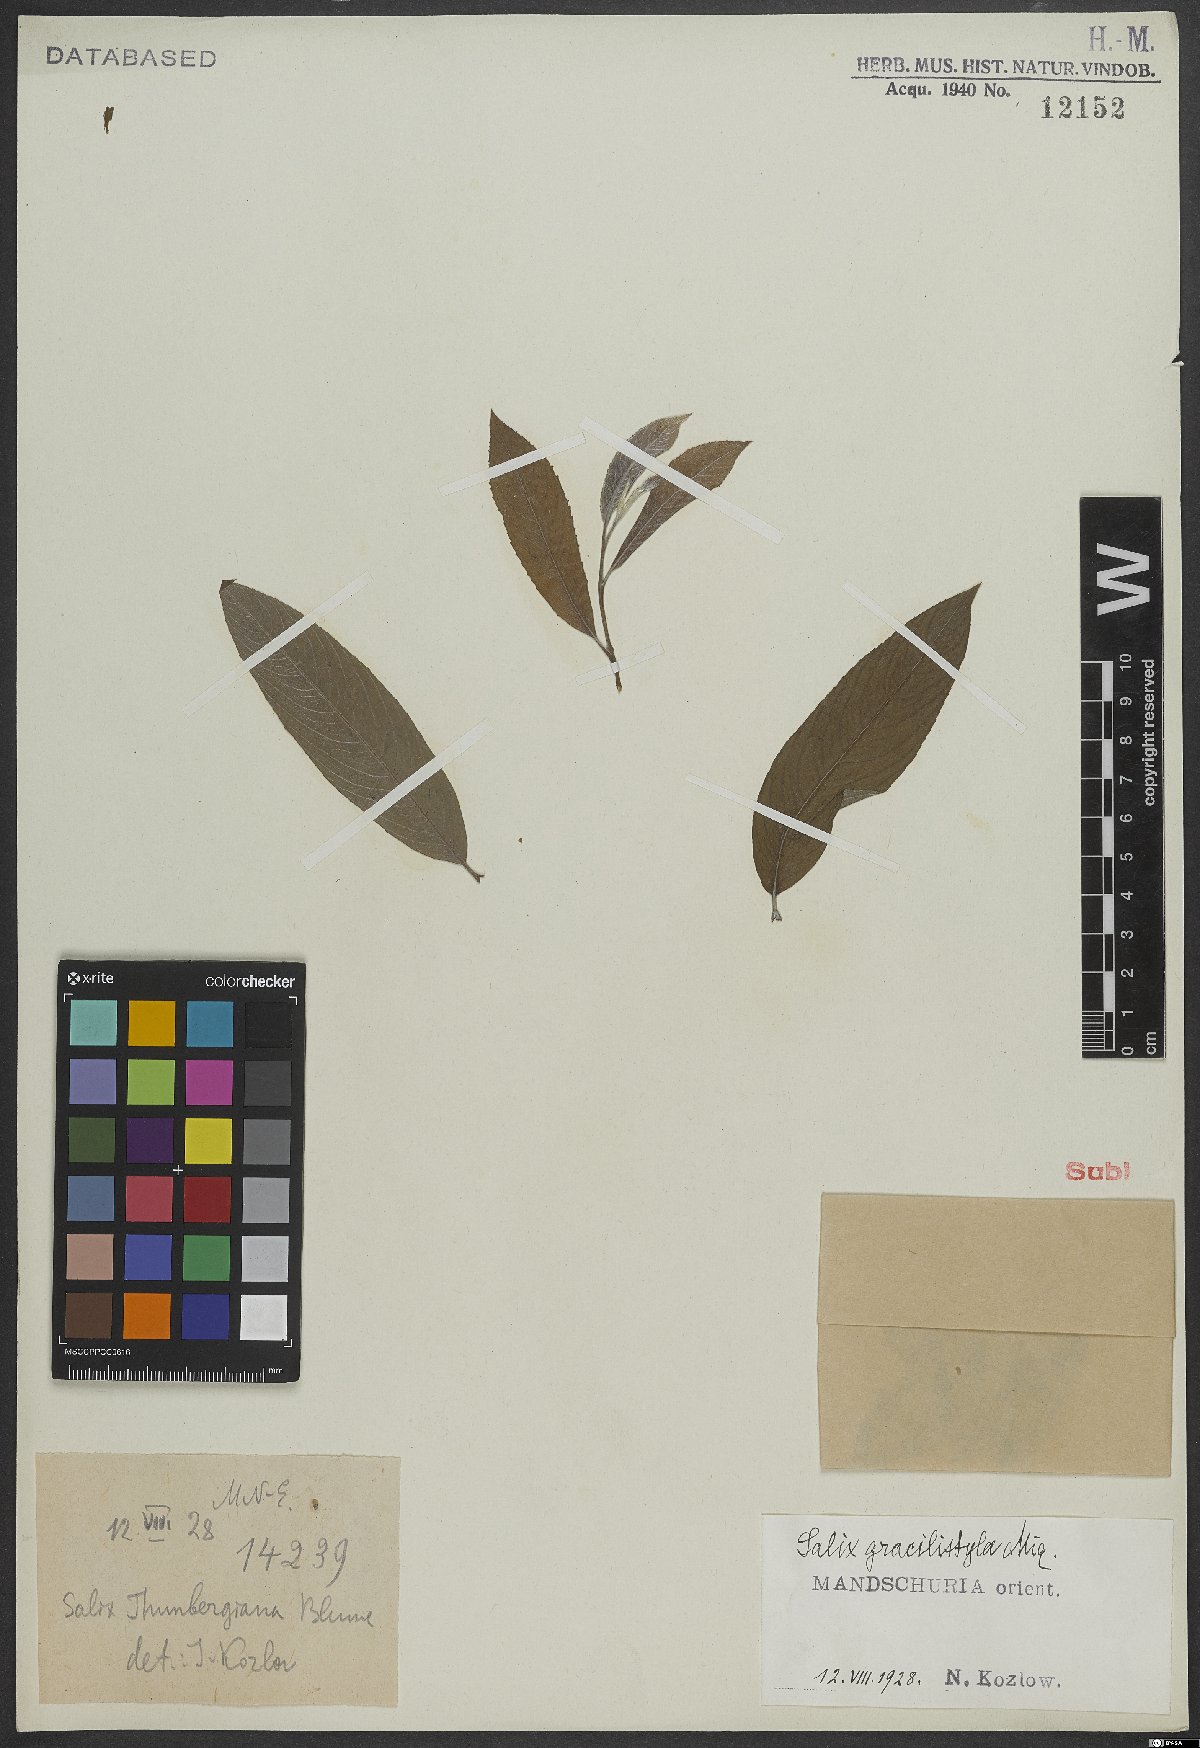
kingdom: Plantae
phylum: Tracheophyta
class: Magnoliopsida
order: Malpighiales
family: Salicaceae
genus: Salix
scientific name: Salix gracilistyla
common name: Rose-gold pussy willow
